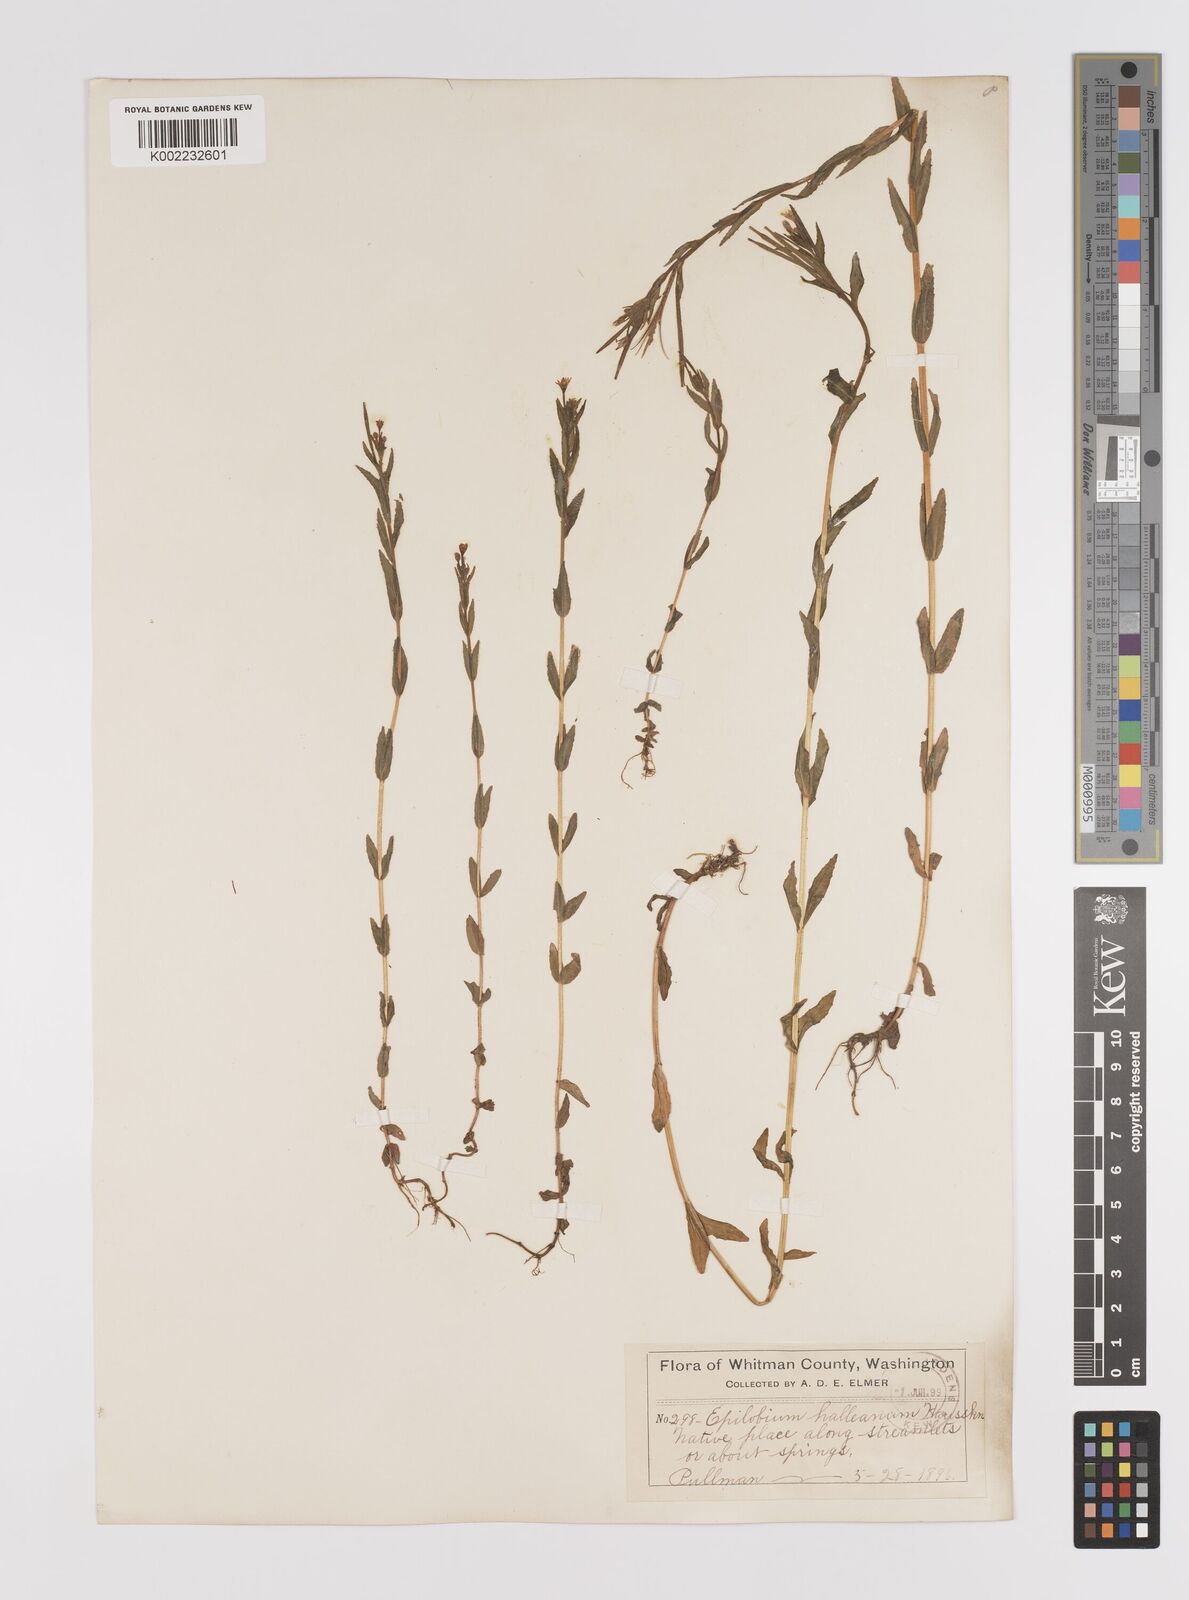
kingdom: Plantae
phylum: Tracheophyta
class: Magnoliopsida
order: Myrtales
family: Onagraceae
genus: Epilobium
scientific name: Epilobium hallianum
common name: Hall's willowherb
